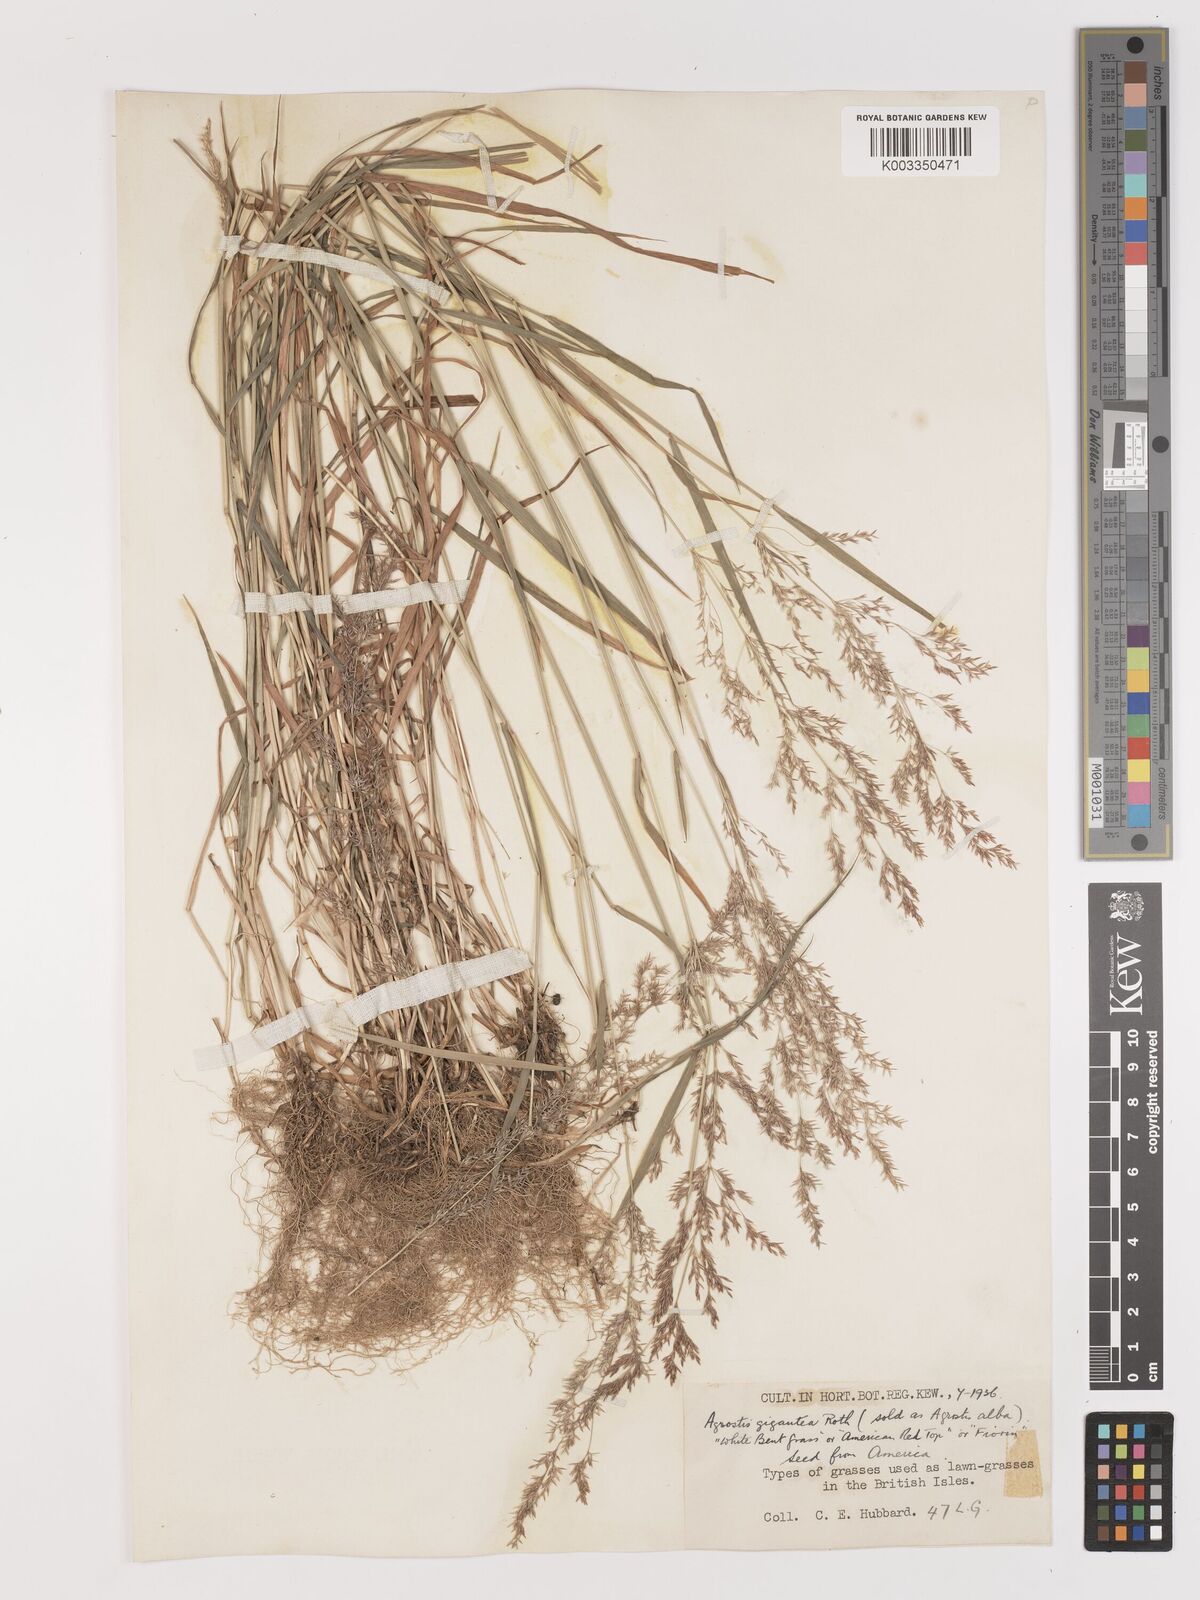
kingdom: Plantae
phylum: Tracheophyta
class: Liliopsida
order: Poales
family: Poaceae
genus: Agrostis
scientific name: Agrostis gigantea
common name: Black bent
